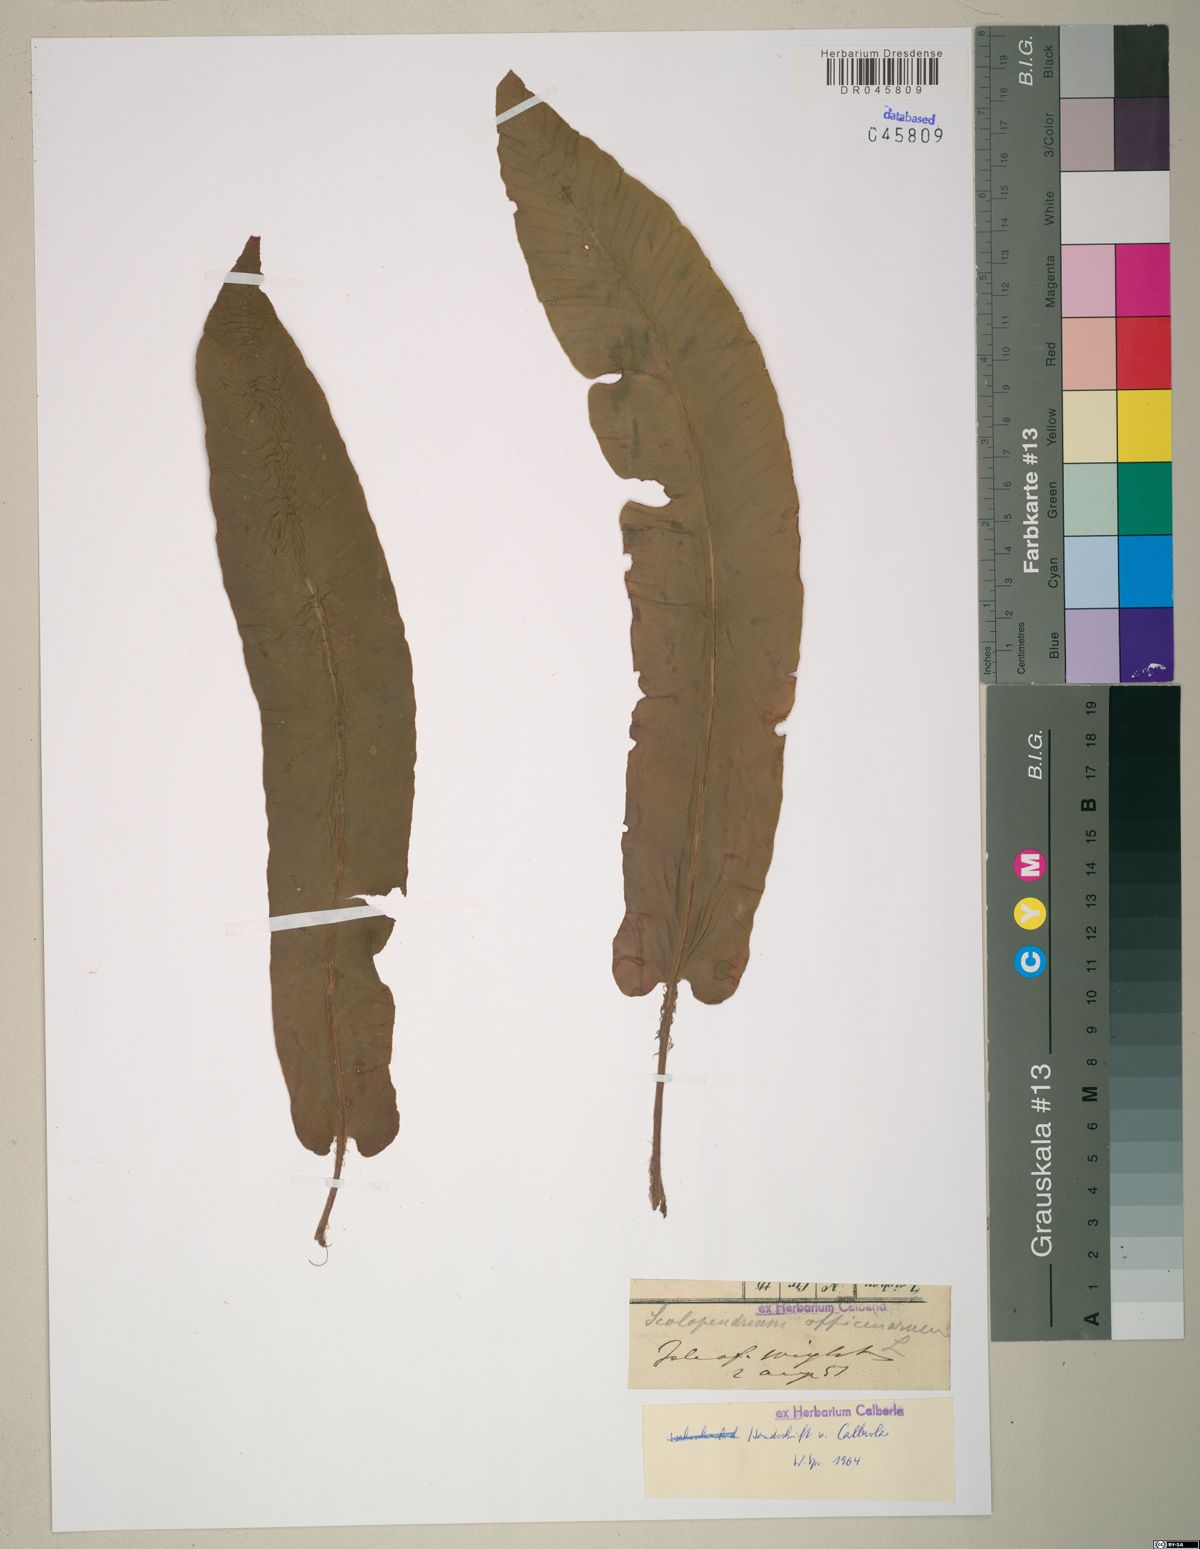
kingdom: Plantae
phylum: Tracheophyta
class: Polypodiopsida
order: Polypodiales
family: Aspleniaceae
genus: Asplenium
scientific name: Asplenium scolopendrium
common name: Hart's-tongue fern
